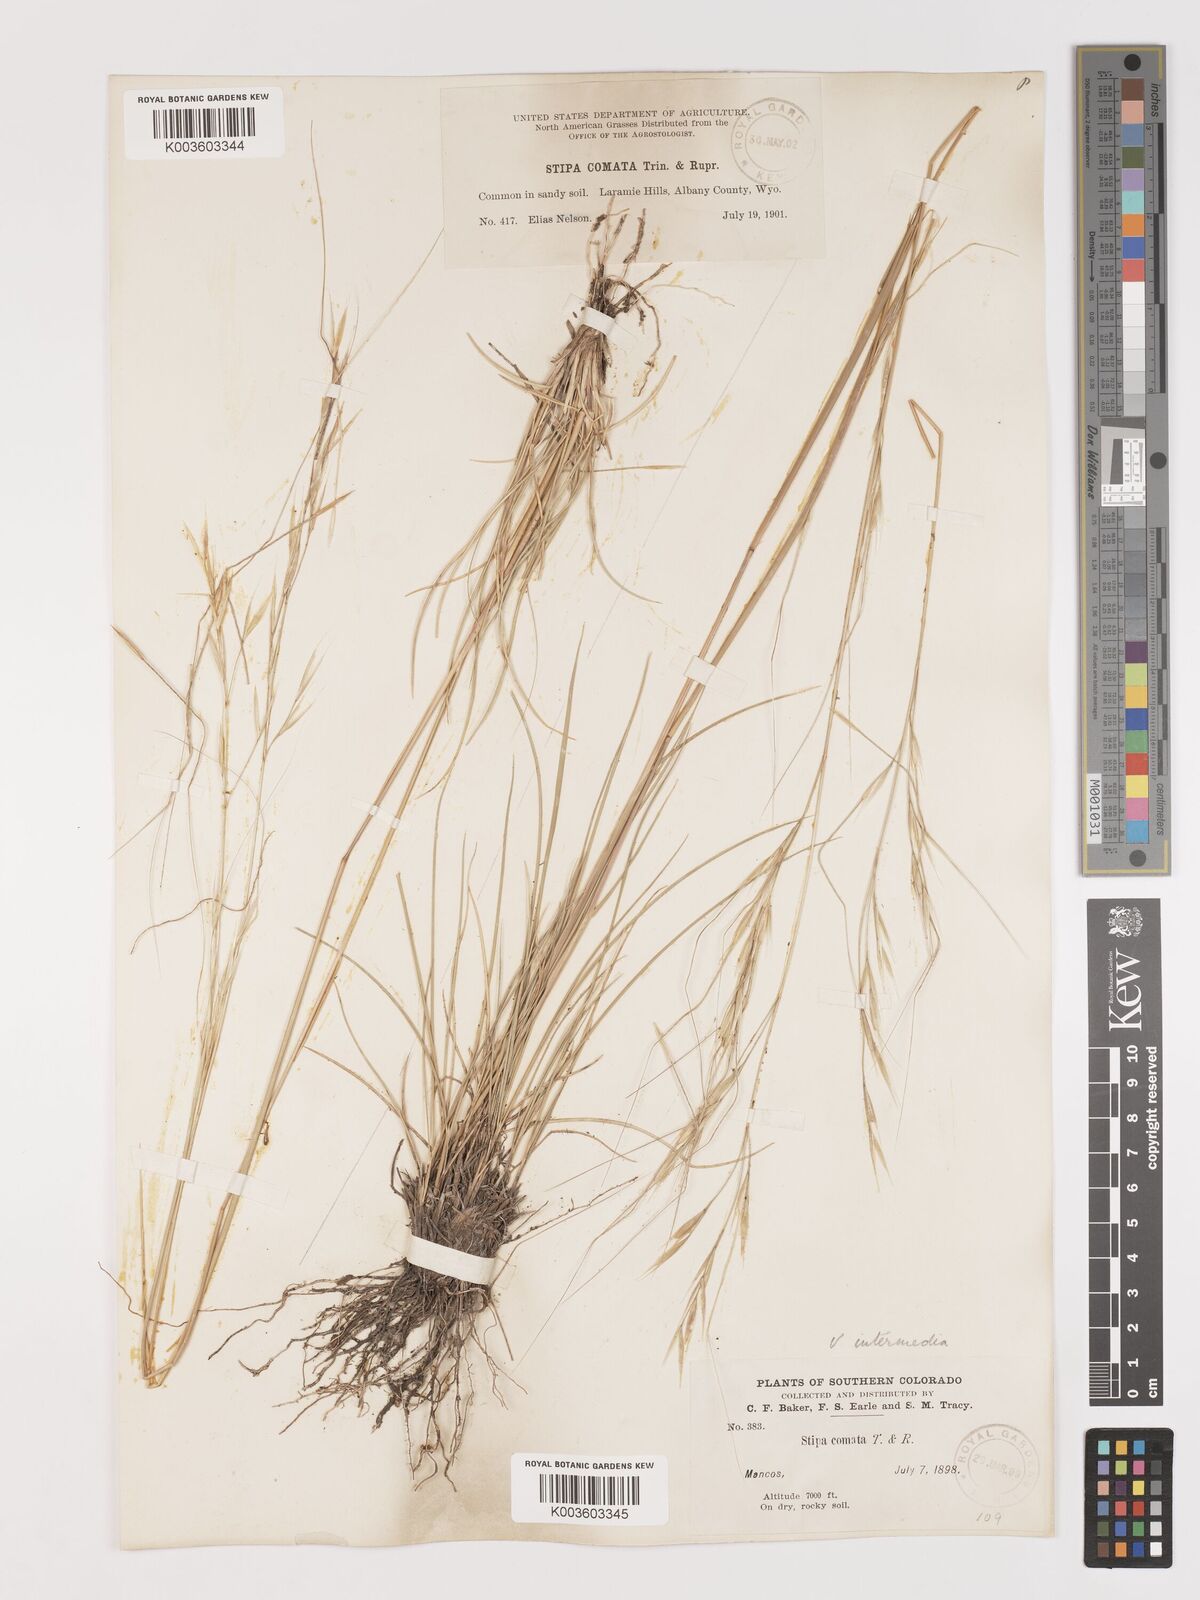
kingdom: Plantae
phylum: Tracheophyta
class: Liliopsida
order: Poales
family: Poaceae
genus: Hesperostipa
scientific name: Hesperostipa comata
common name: Needle-and-thread grass
